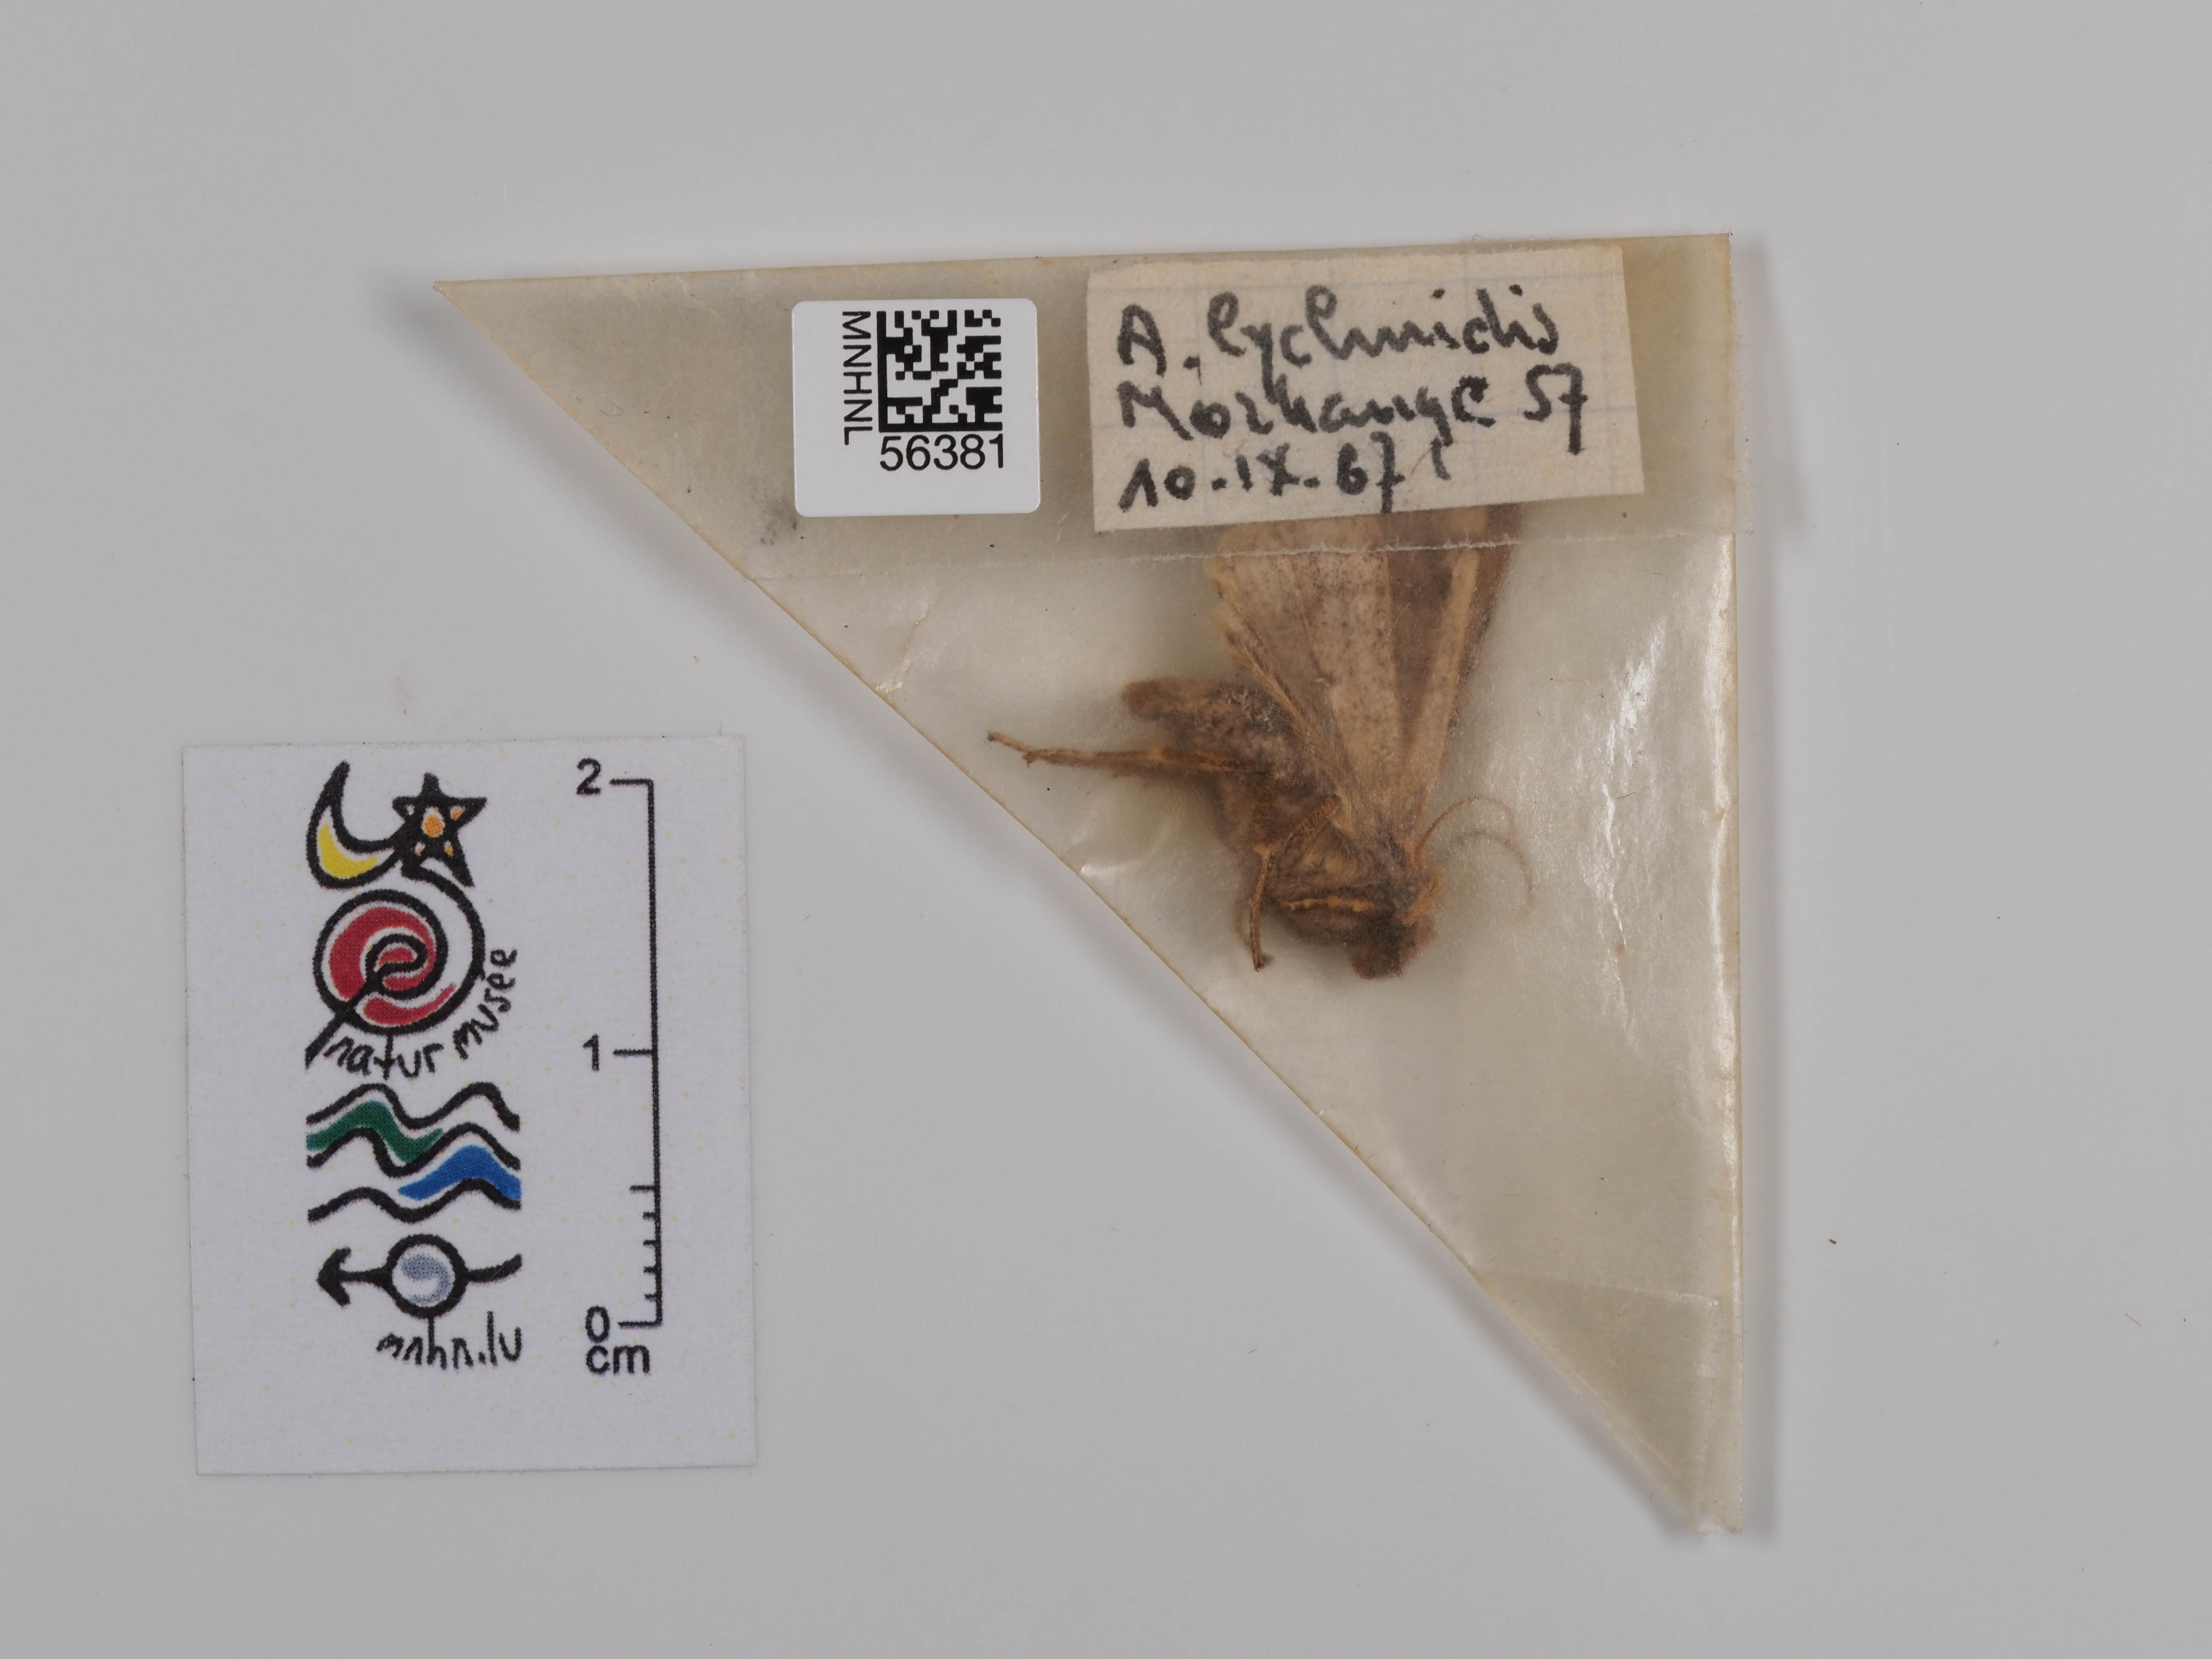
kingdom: Animalia
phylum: Arthropoda
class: Insecta
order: Lepidoptera
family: Noctuidae
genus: Agrochola
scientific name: Agrochola lychnidis
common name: Beaded chestnut
